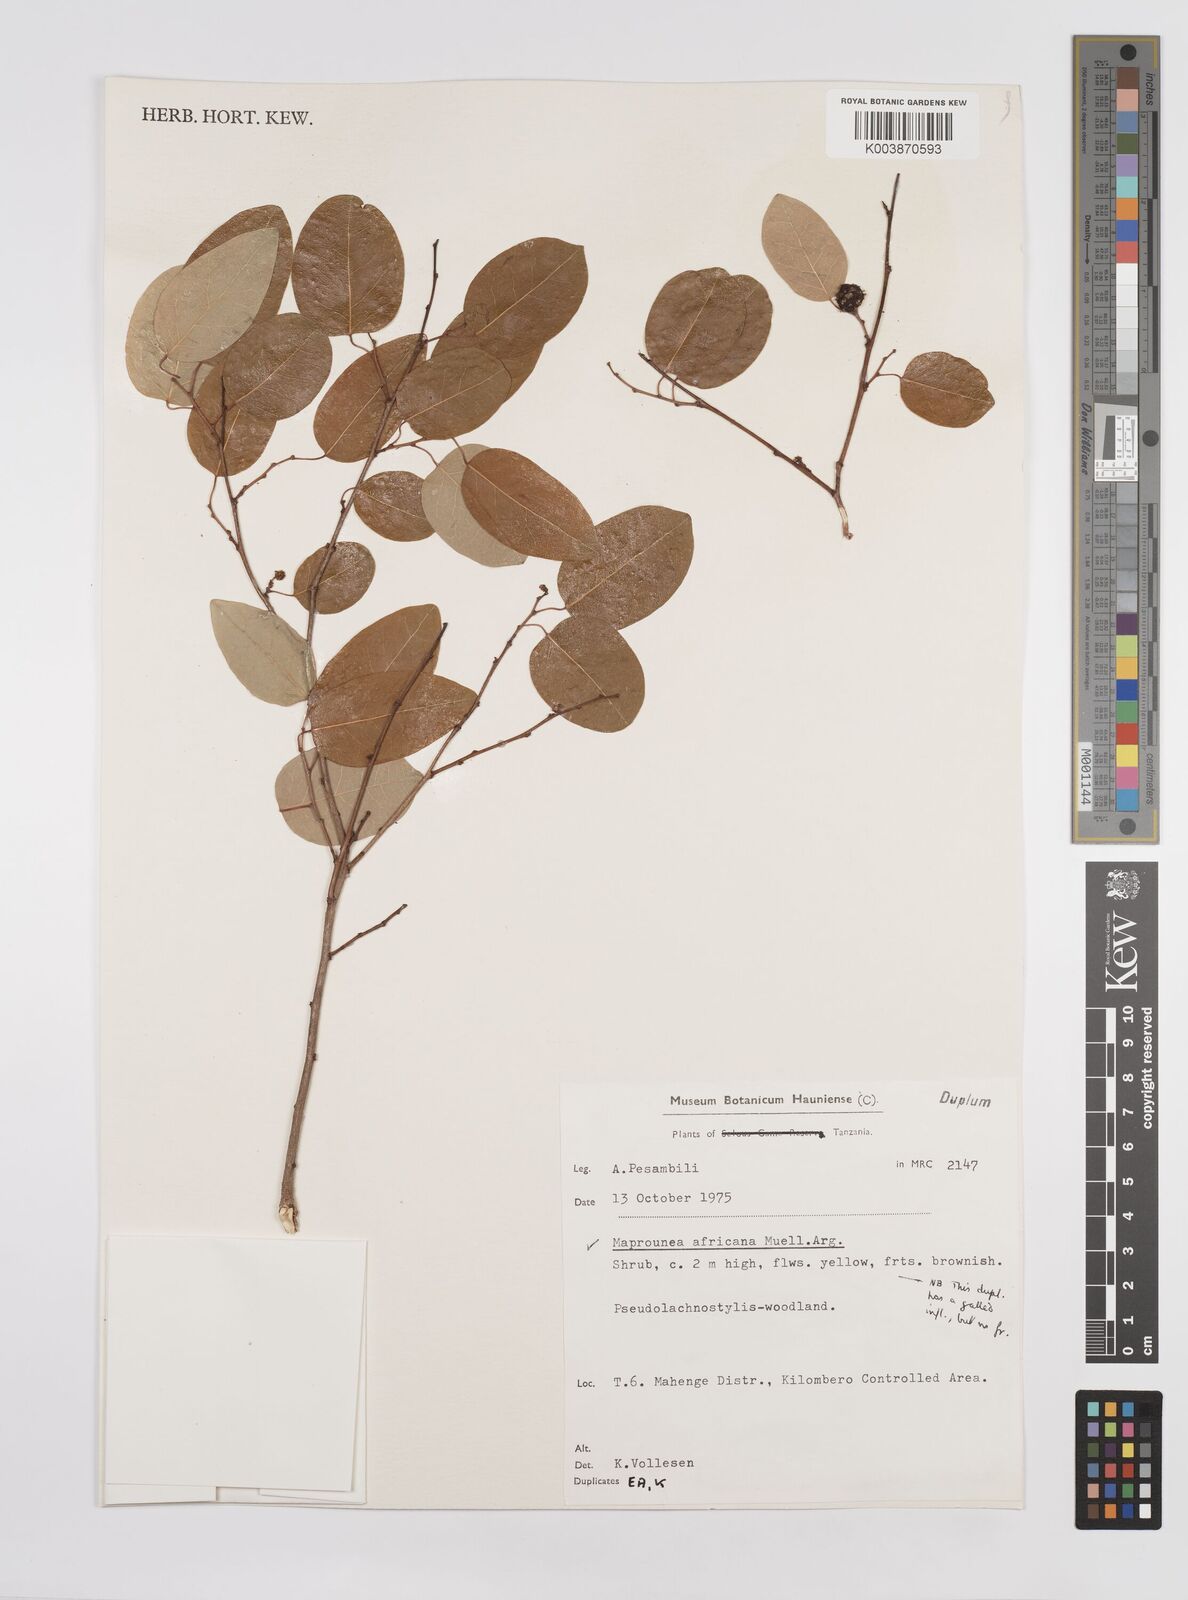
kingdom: Plantae
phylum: Tracheophyta
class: Magnoliopsida
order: Malpighiales
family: Euphorbiaceae
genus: Maprounea
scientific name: Maprounea africana
